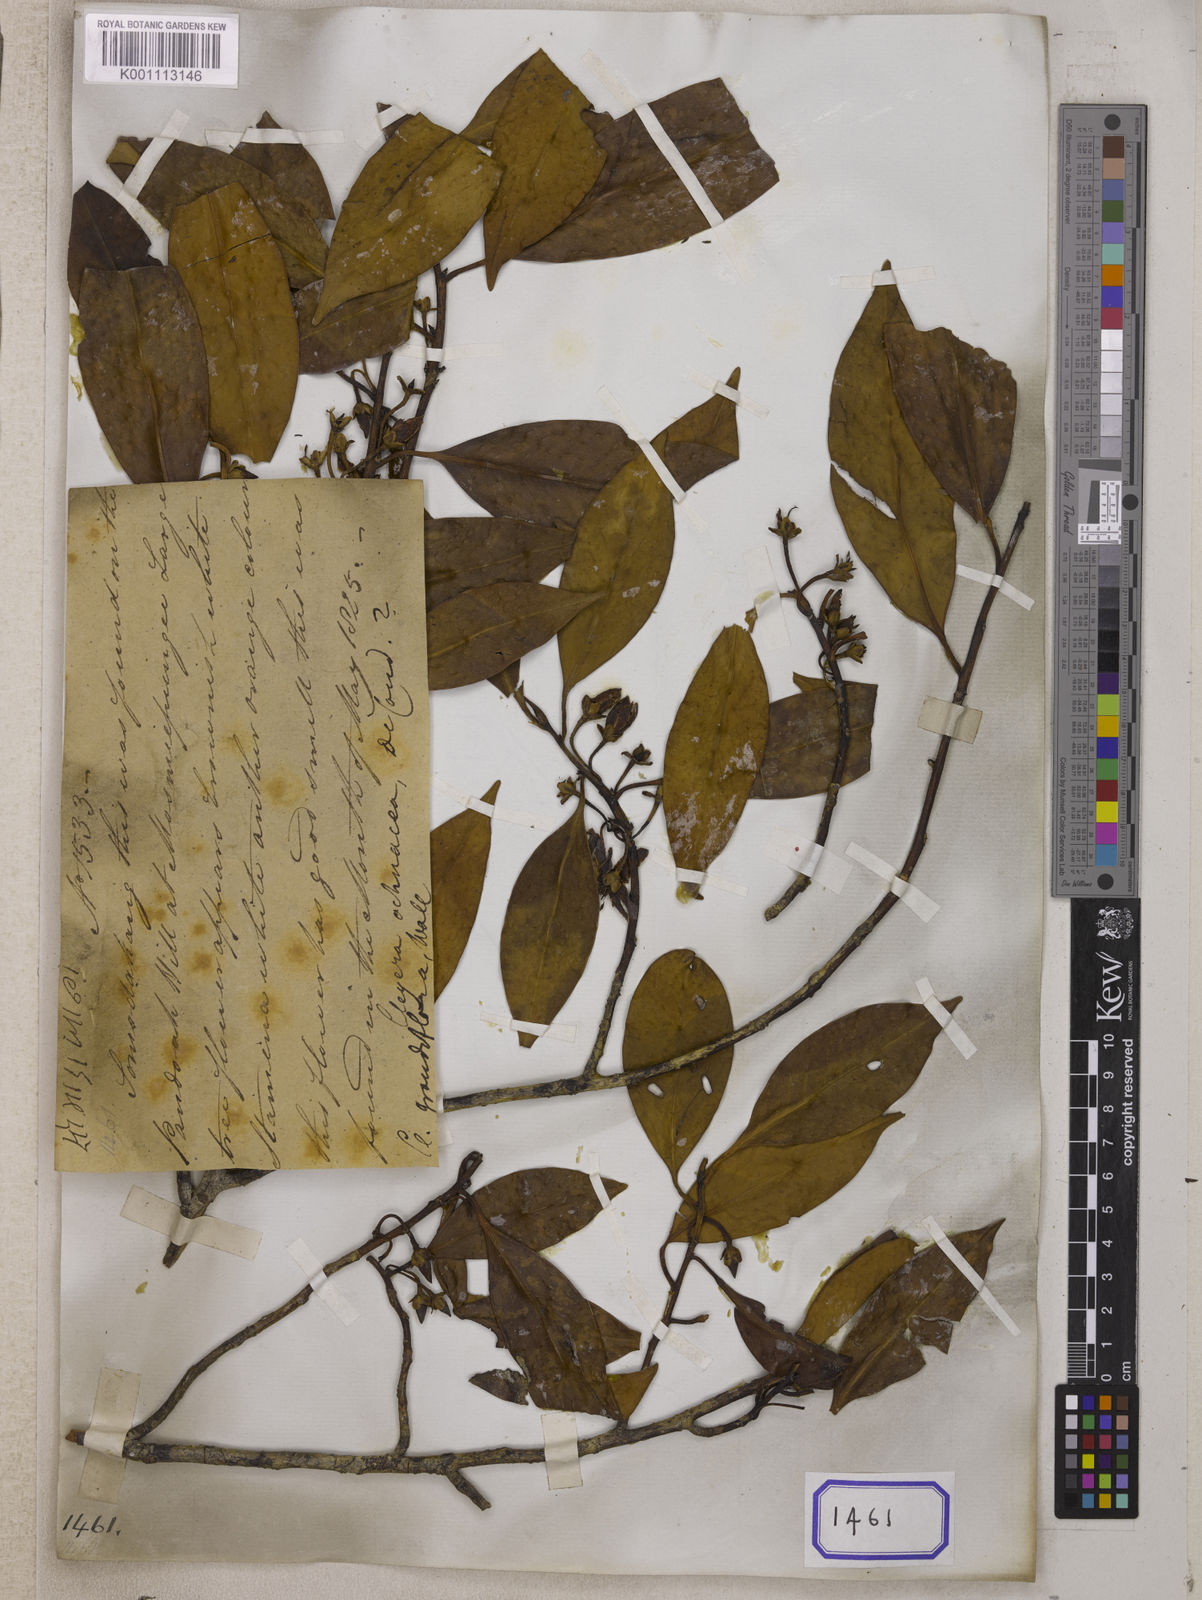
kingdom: Plantae
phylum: Tracheophyta
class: Magnoliopsida
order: Ericales
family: Pentaphylacaceae
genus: Cleyera
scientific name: Cleyera
